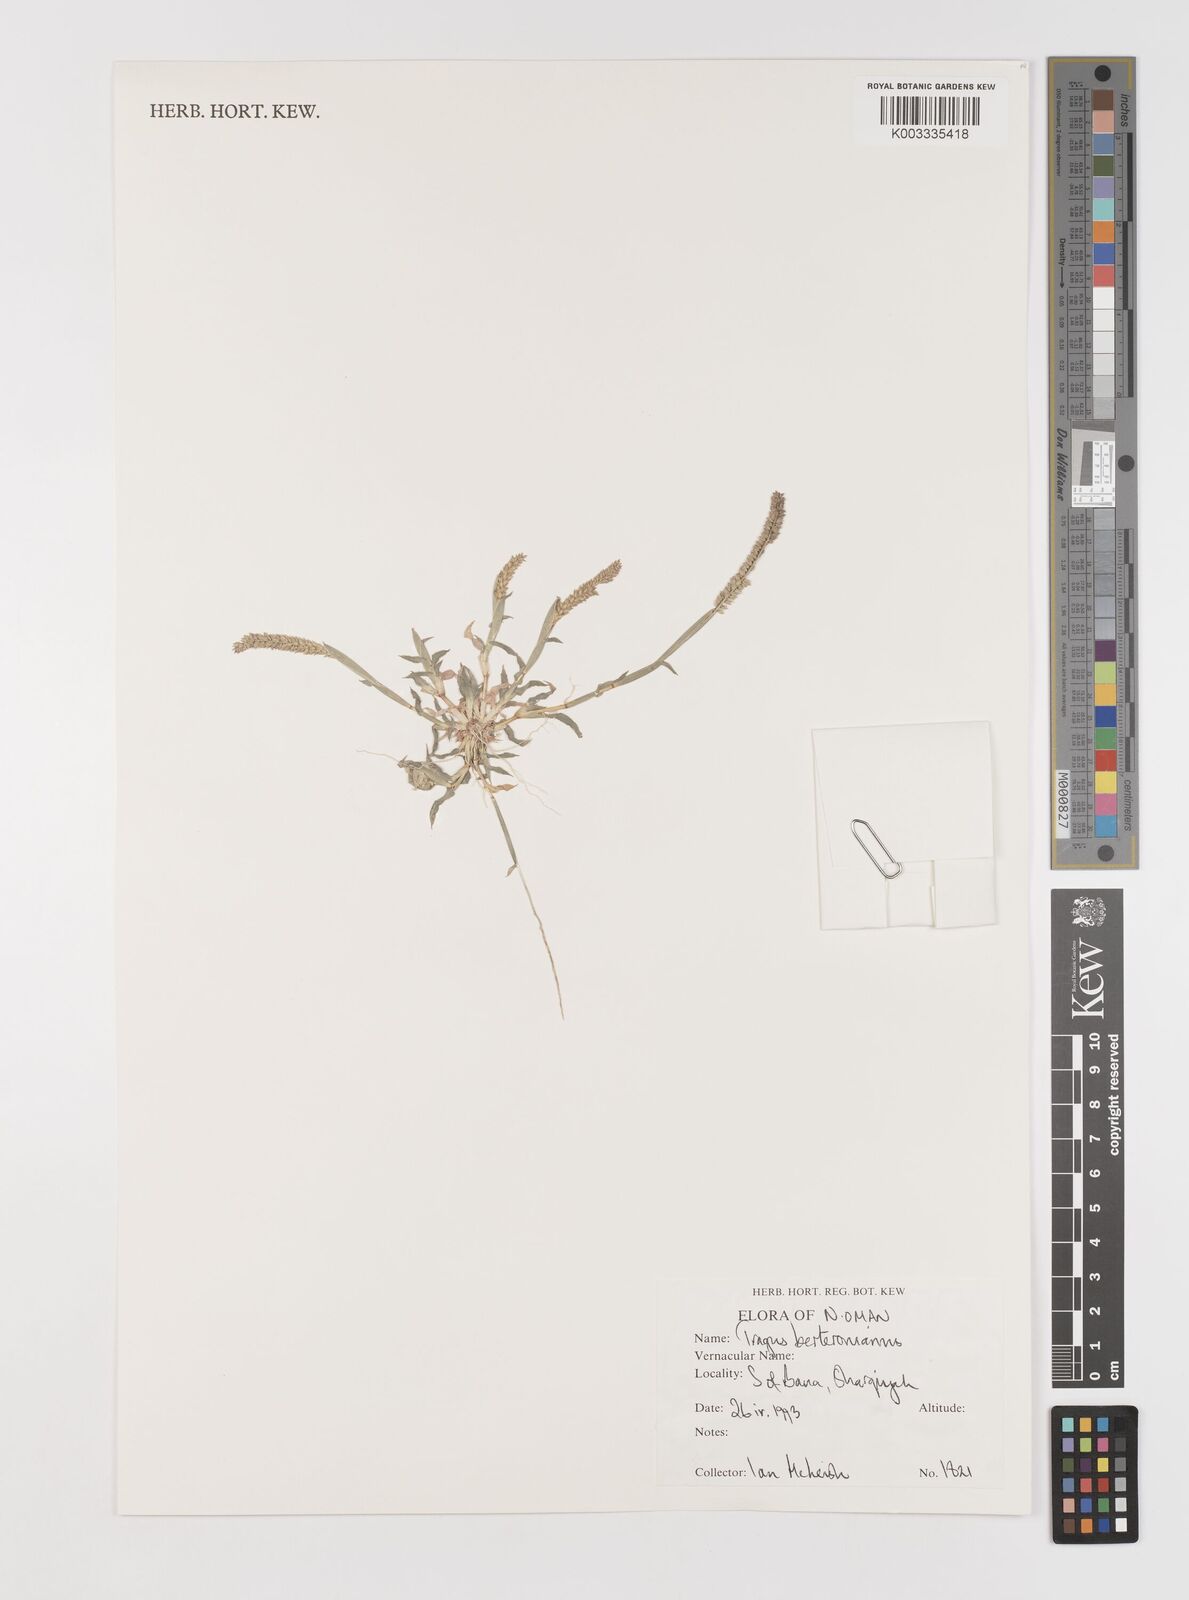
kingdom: Plantae
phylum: Tracheophyta
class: Liliopsida
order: Poales
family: Poaceae
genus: Tragus
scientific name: Tragus berteronianus
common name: African bur-grass
